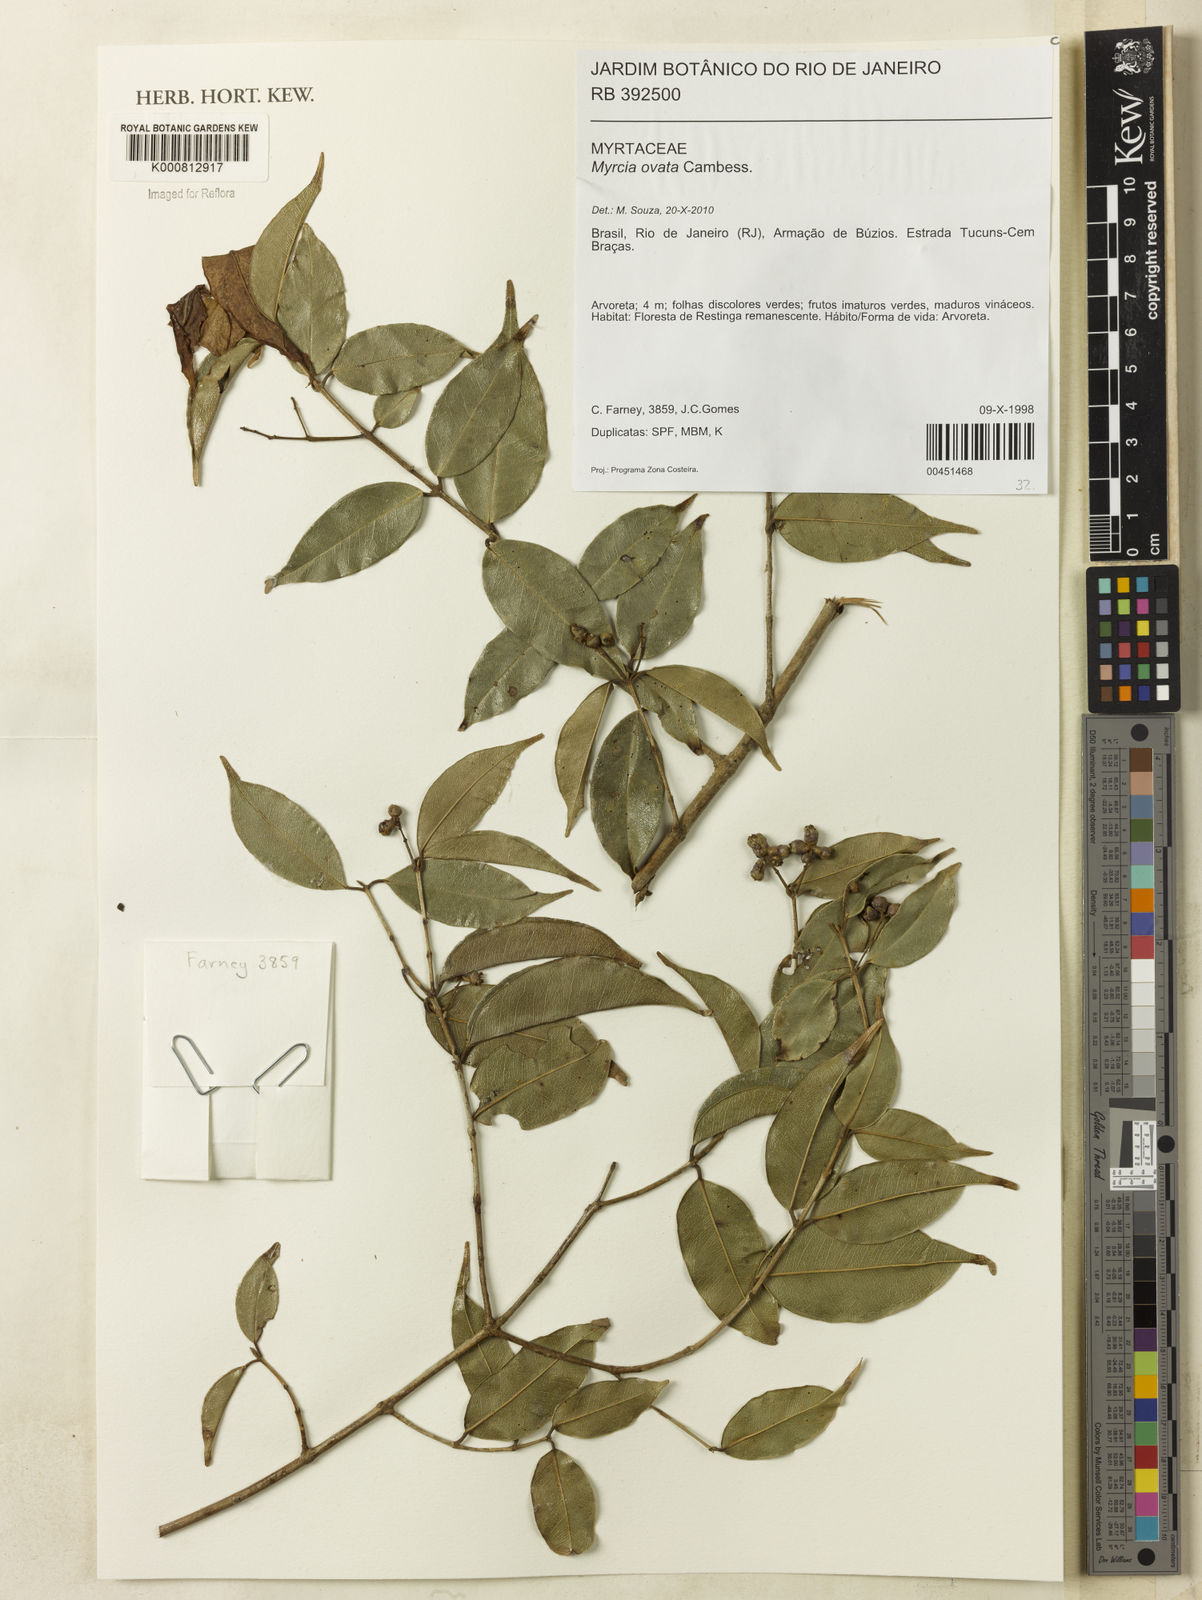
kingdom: Plantae
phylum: Tracheophyta
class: Magnoliopsida
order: Myrtales
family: Myrtaceae
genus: Myrcia
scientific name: Myrcia ovata
